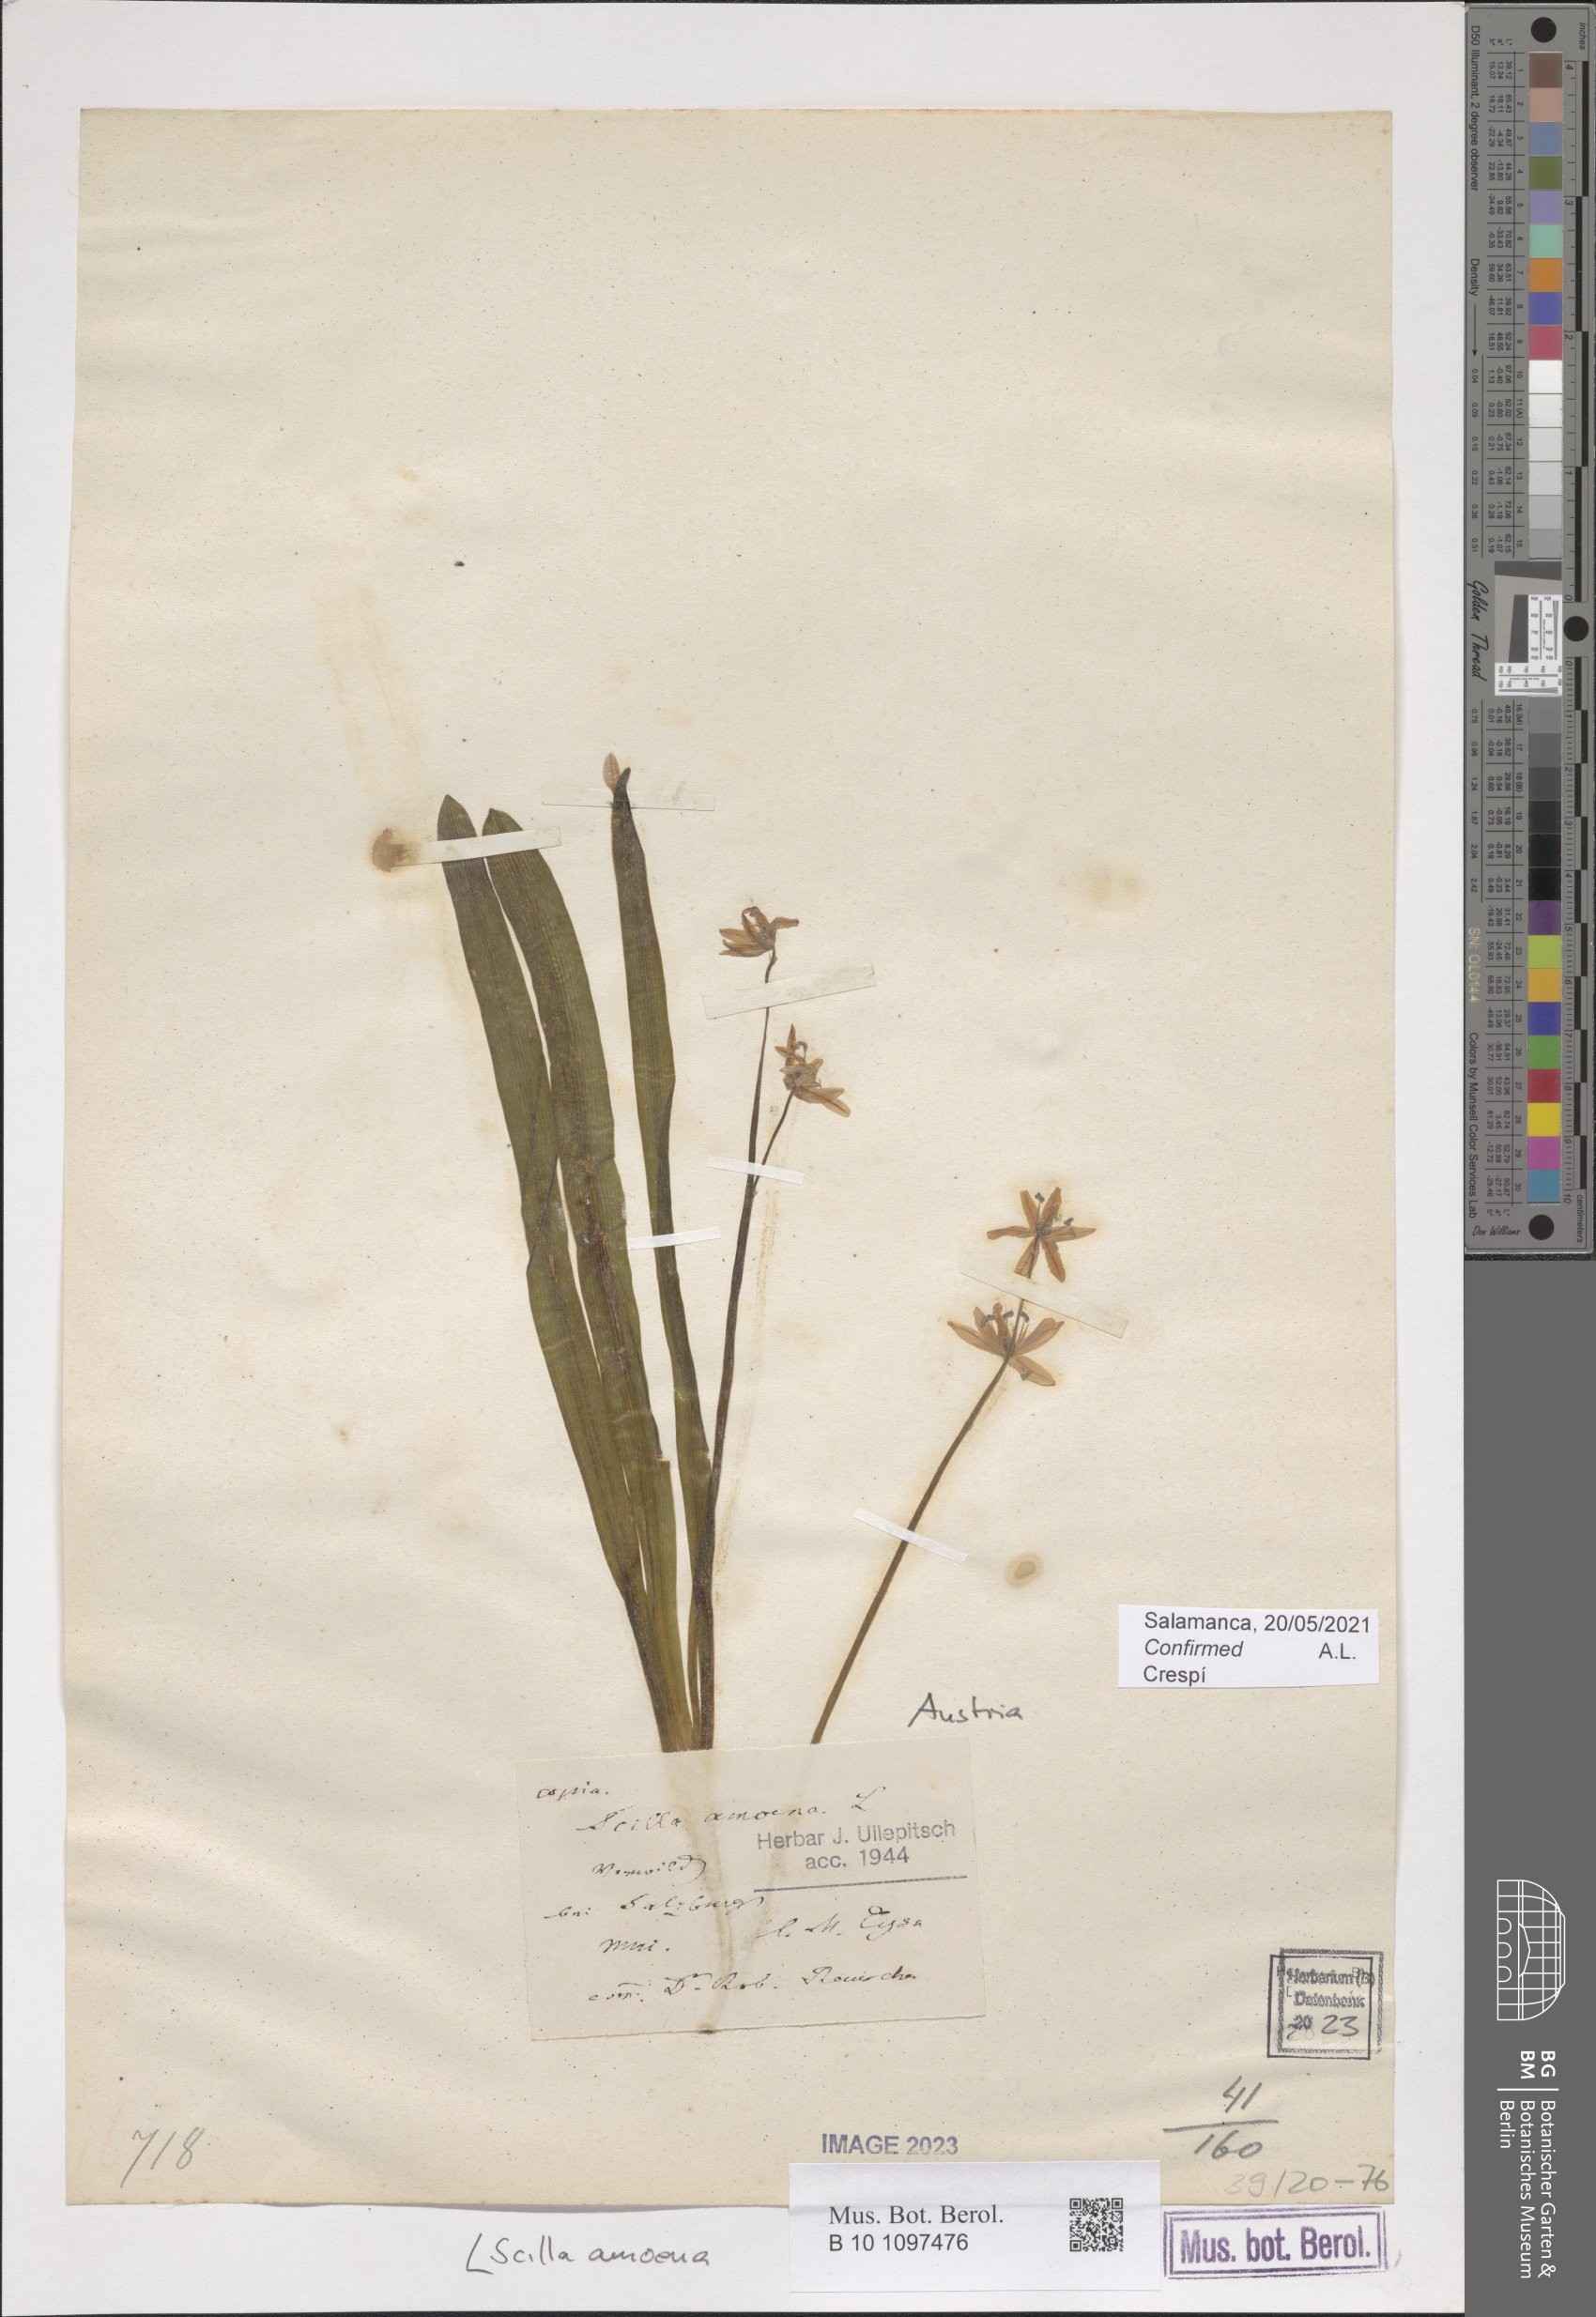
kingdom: Plantae
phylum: Tracheophyta
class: Liliopsida
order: Asparagales
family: Asparagaceae
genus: Scilla
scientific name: Scilla amoena
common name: Star-hyacinth
